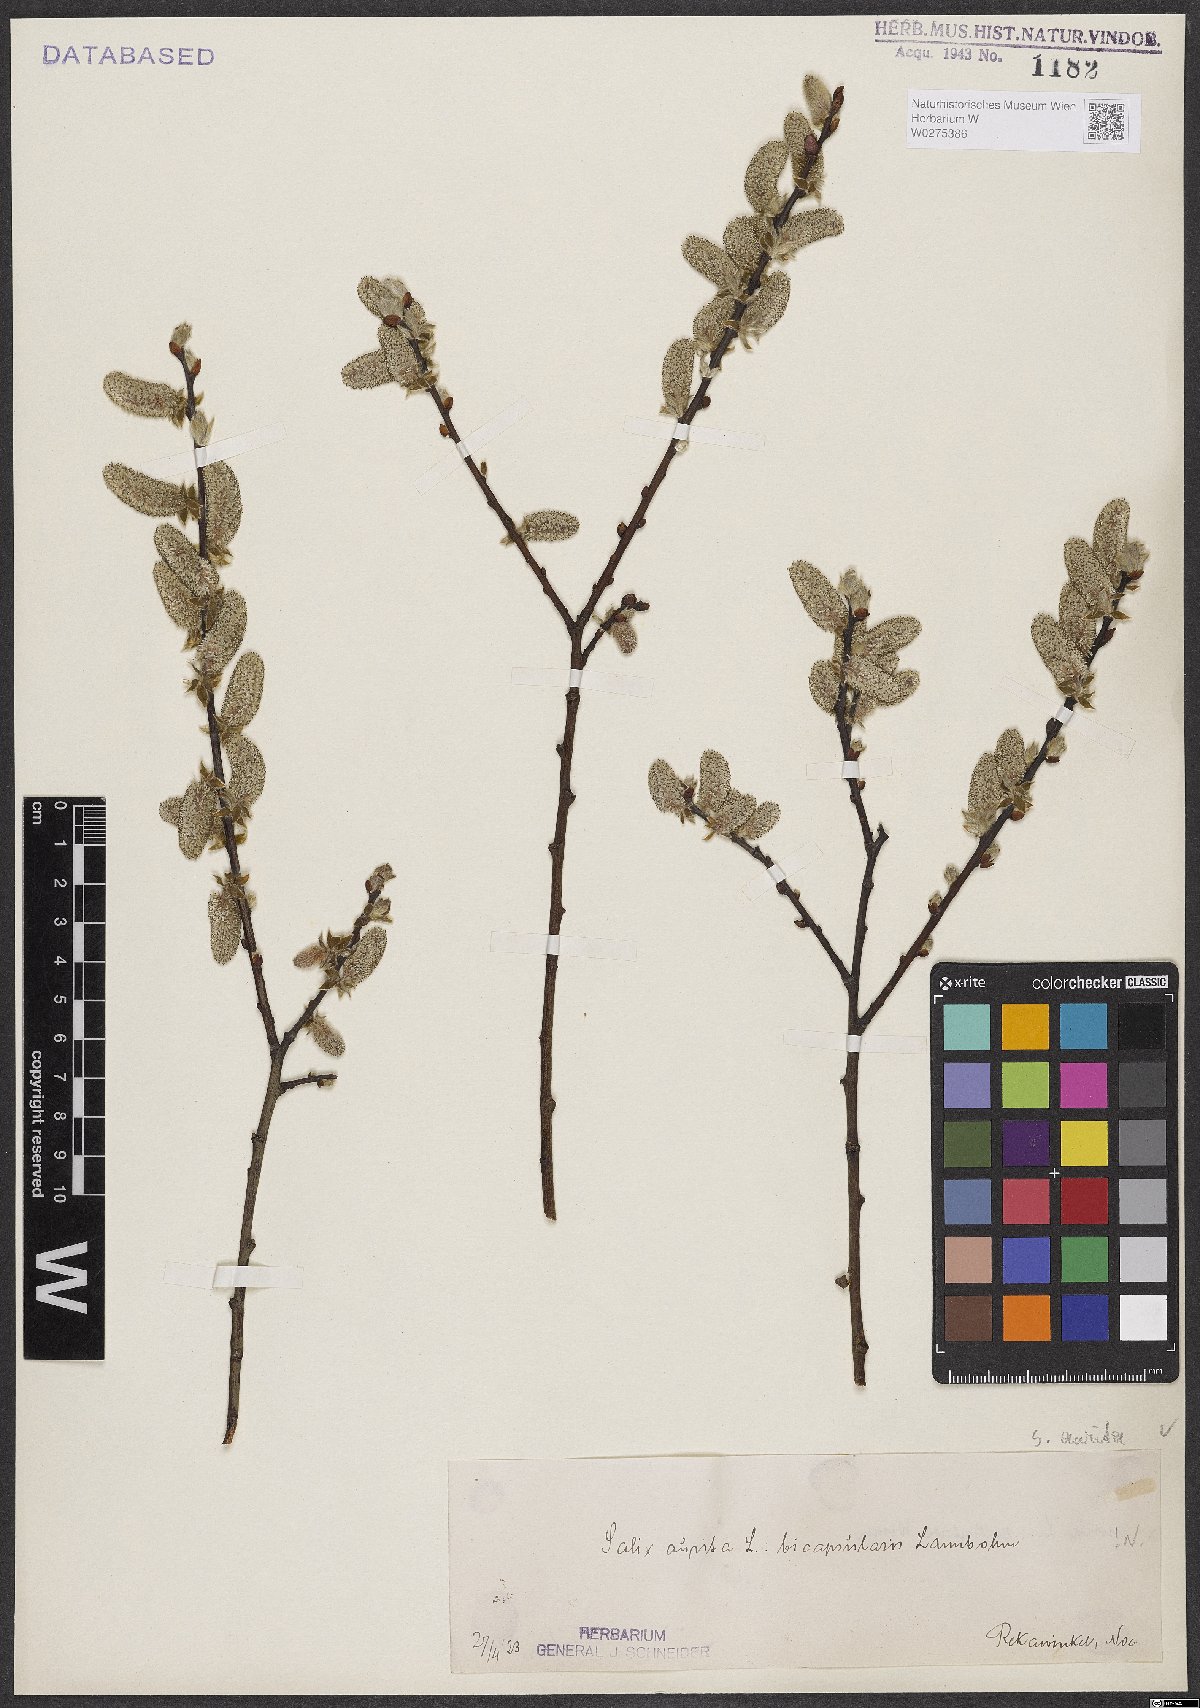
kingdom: Plantae
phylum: Tracheophyta
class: Magnoliopsida
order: Malpighiales
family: Salicaceae
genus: Salix
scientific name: Salix aurita
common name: Eared willow
